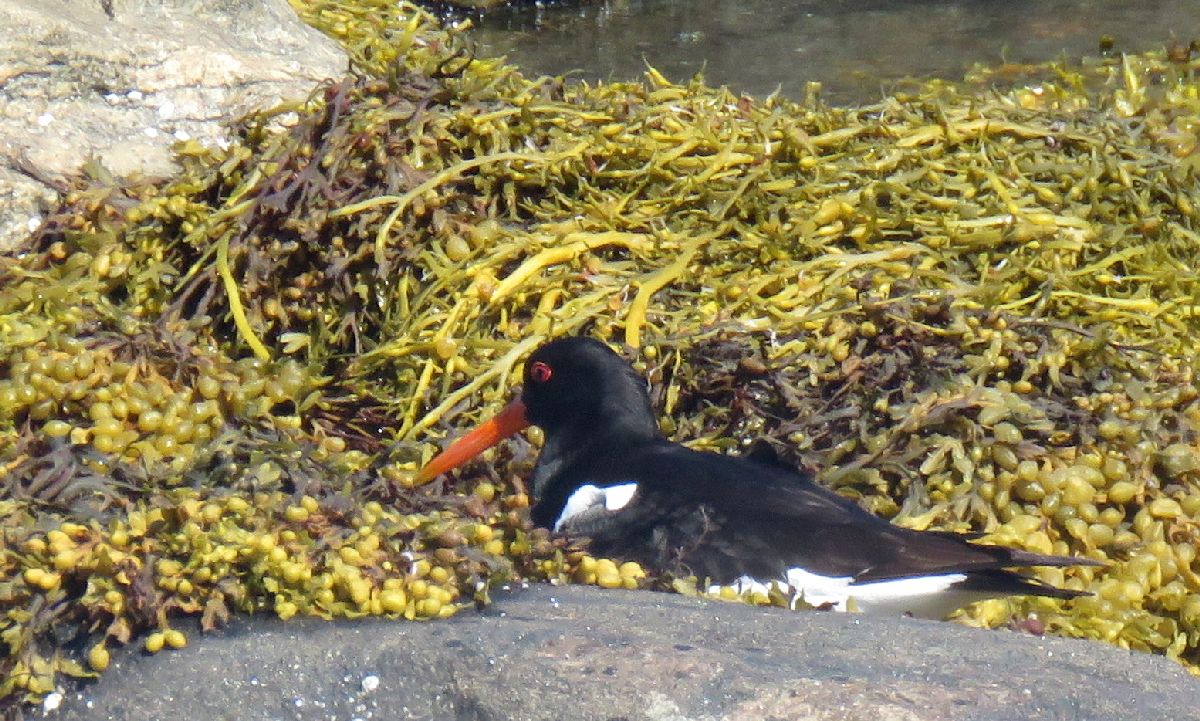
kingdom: Animalia
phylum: Chordata
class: Aves
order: Charadriiformes
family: Haematopodidae
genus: Haematopus
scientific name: Haematopus ostralegus
